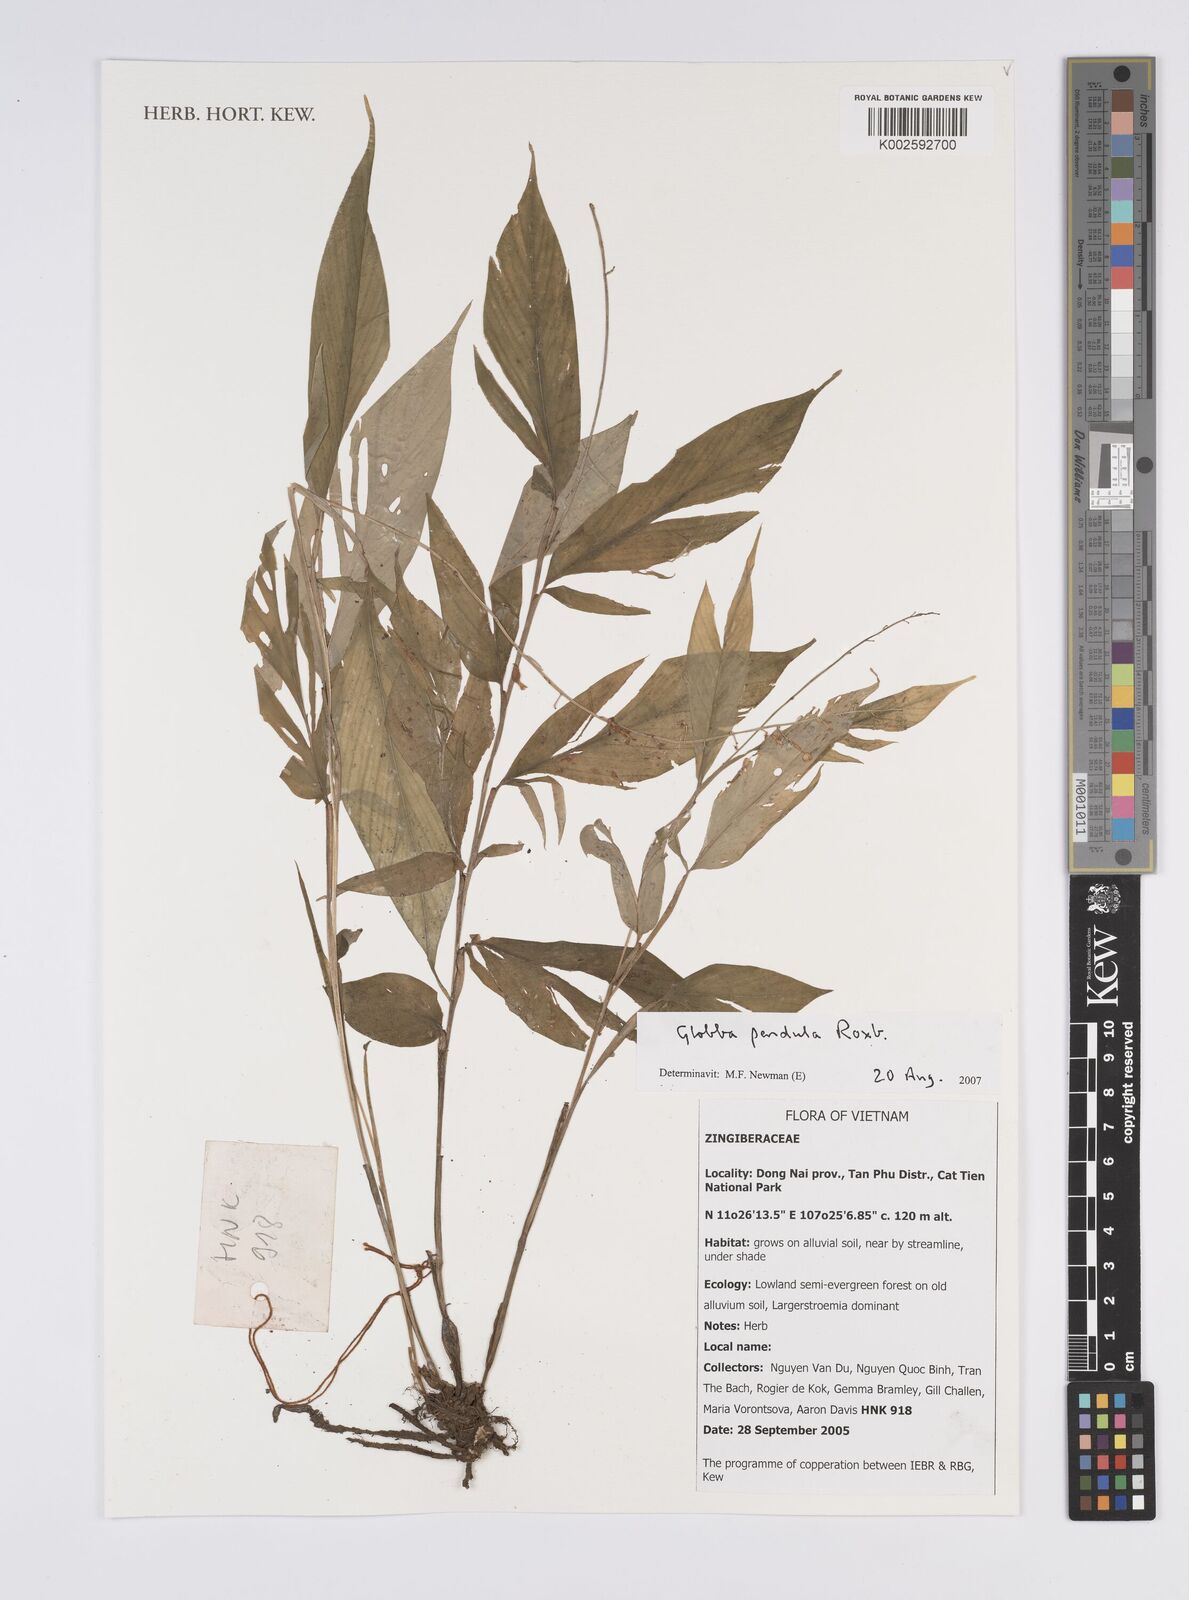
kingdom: Plantae
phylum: Tracheophyta
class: Liliopsida
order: Zingiberales
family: Zingiberaceae
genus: Globba
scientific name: Globba pendula
